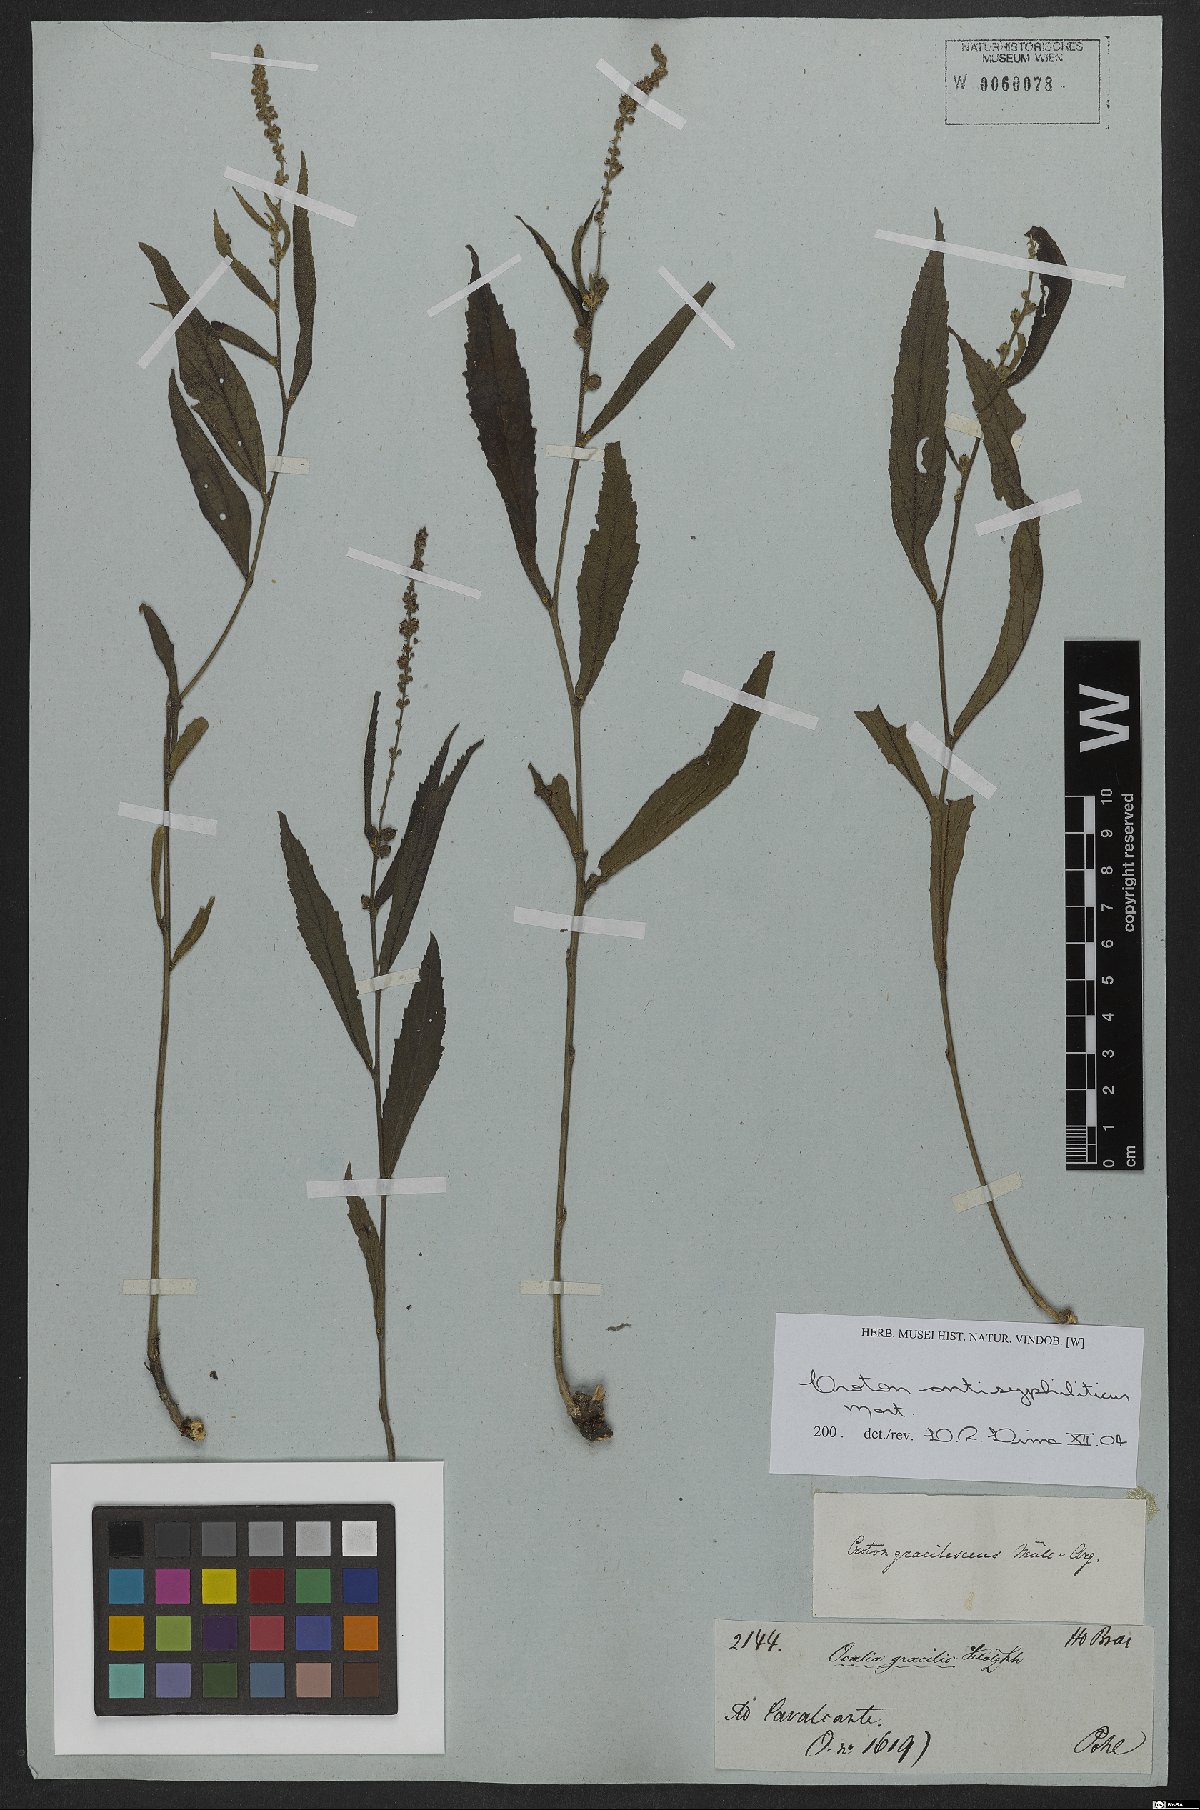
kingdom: Plantae
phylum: Tracheophyta
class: Magnoliopsida
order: Malpighiales
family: Euphorbiaceae
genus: Croton
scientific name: Croton antisyphiliticus
